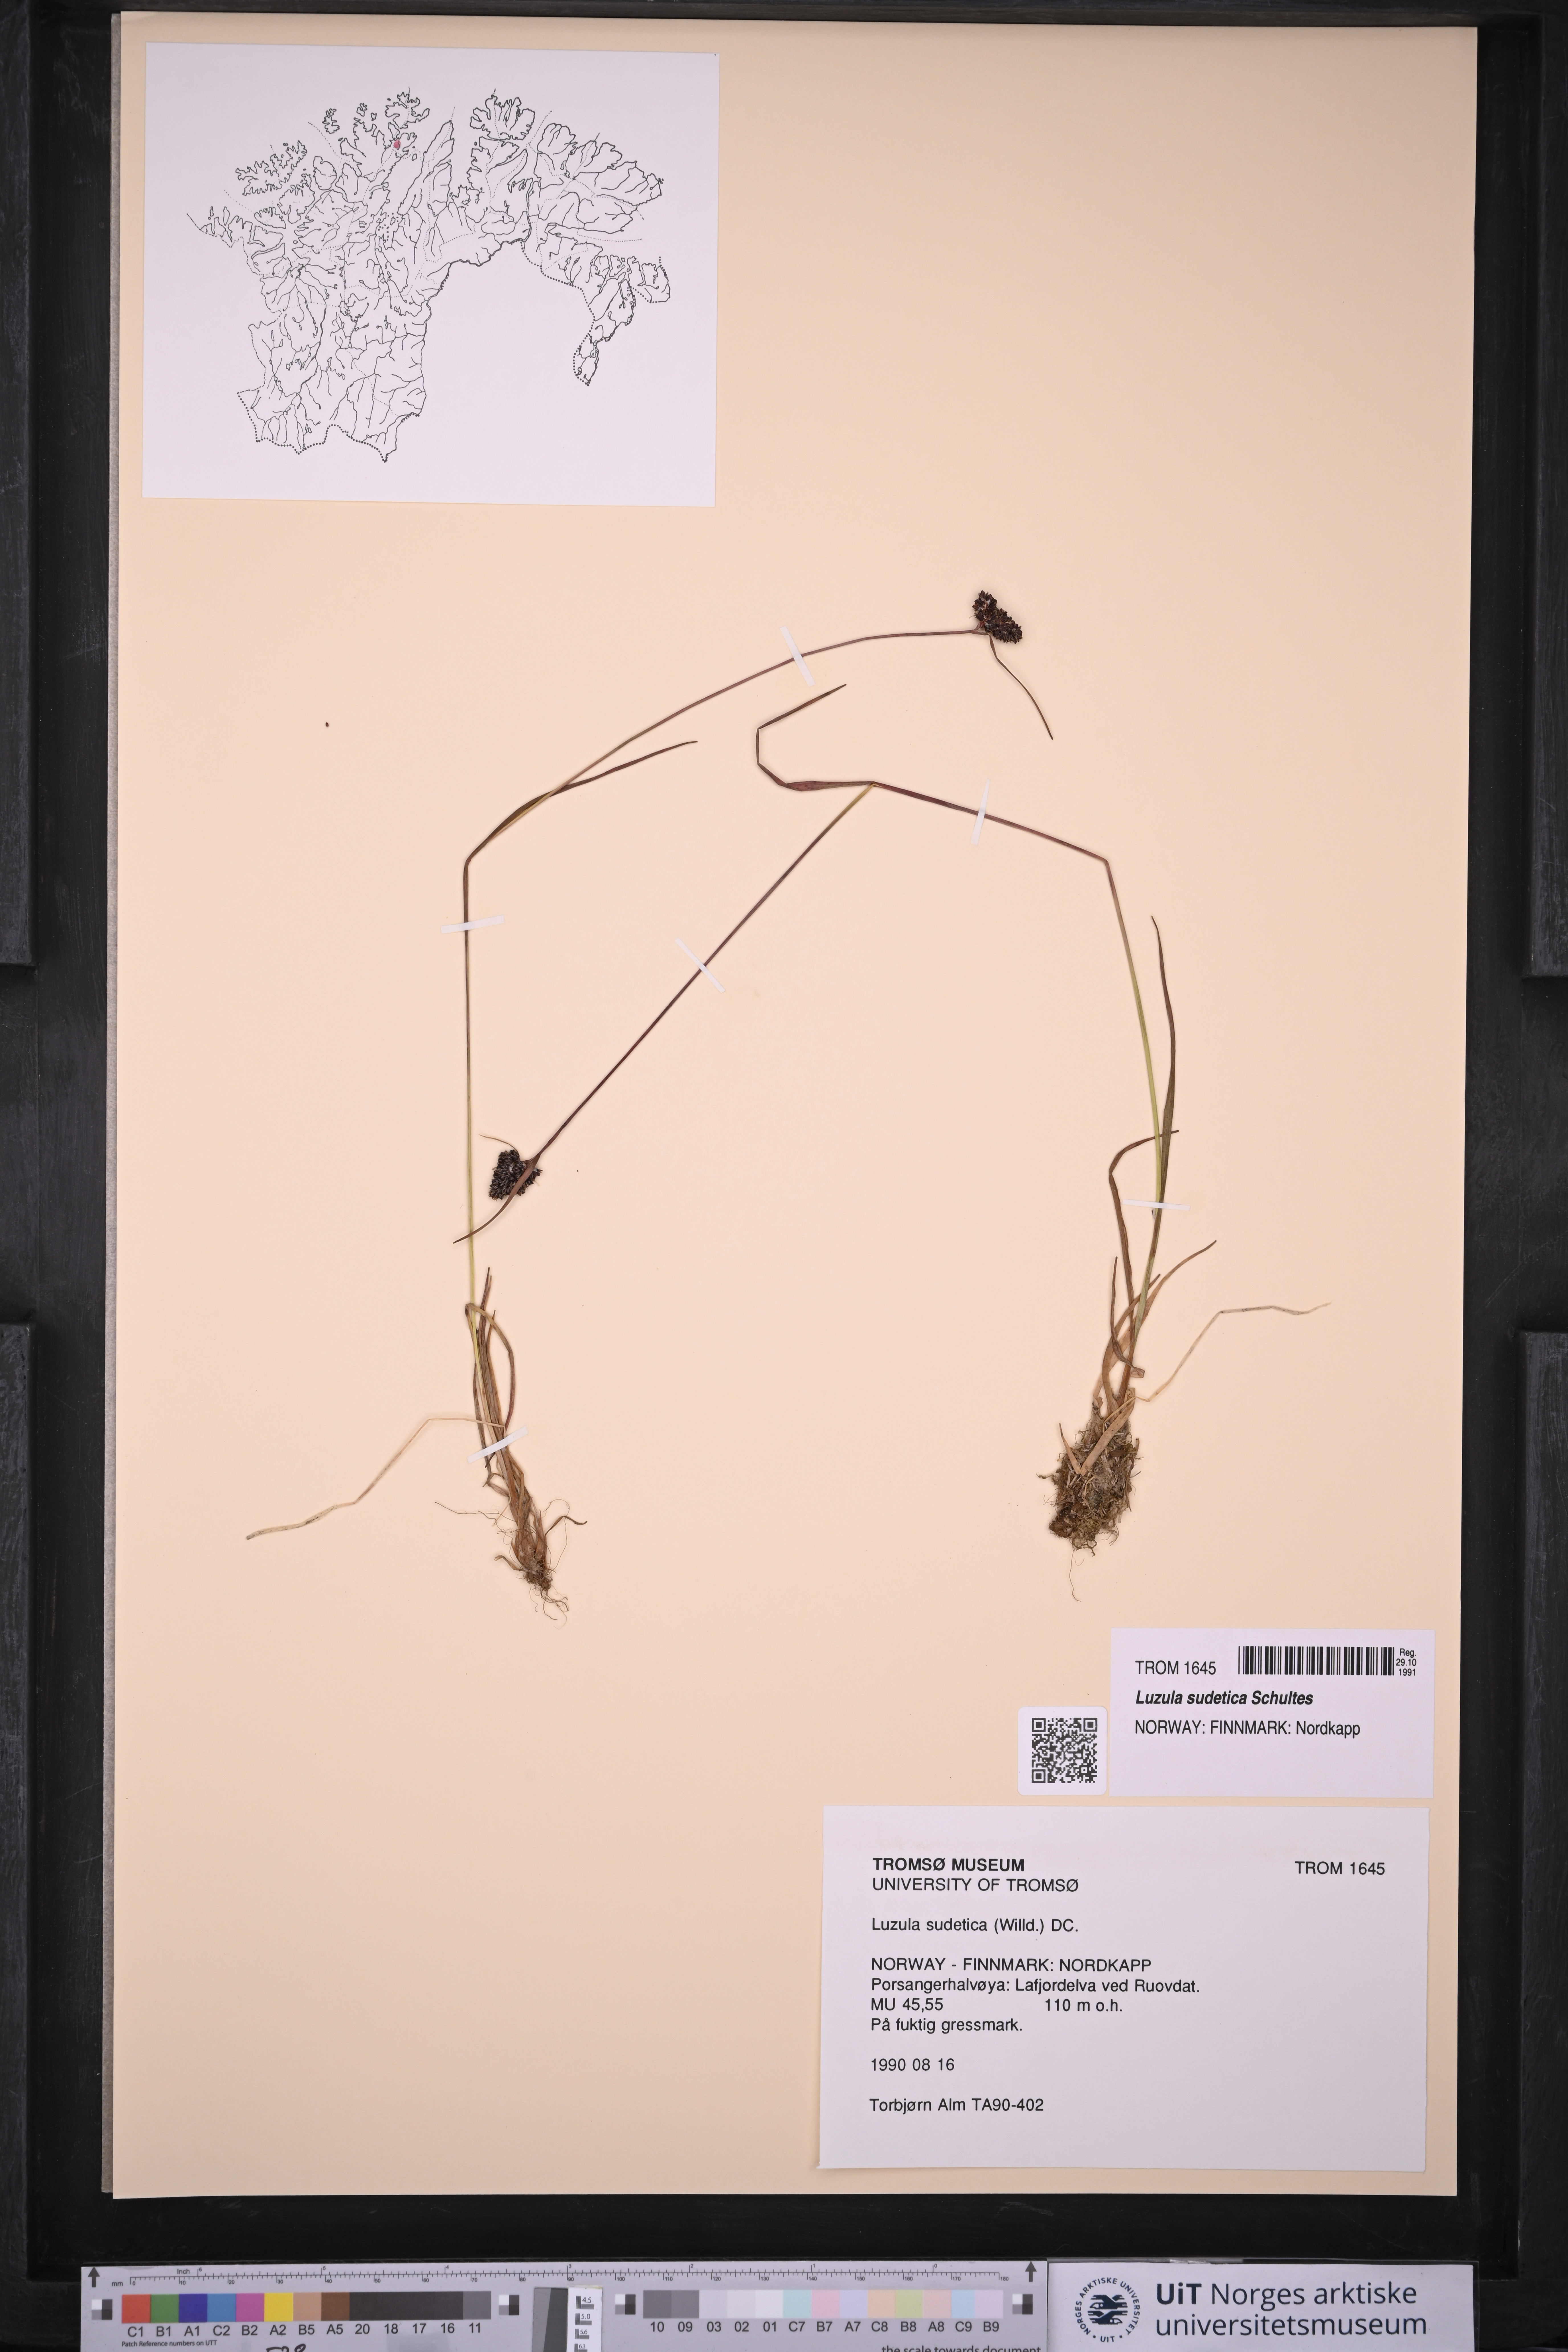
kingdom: Plantae
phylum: Tracheophyta
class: Liliopsida
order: Poales
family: Juncaceae
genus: Luzula
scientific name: Luzula sudetica
